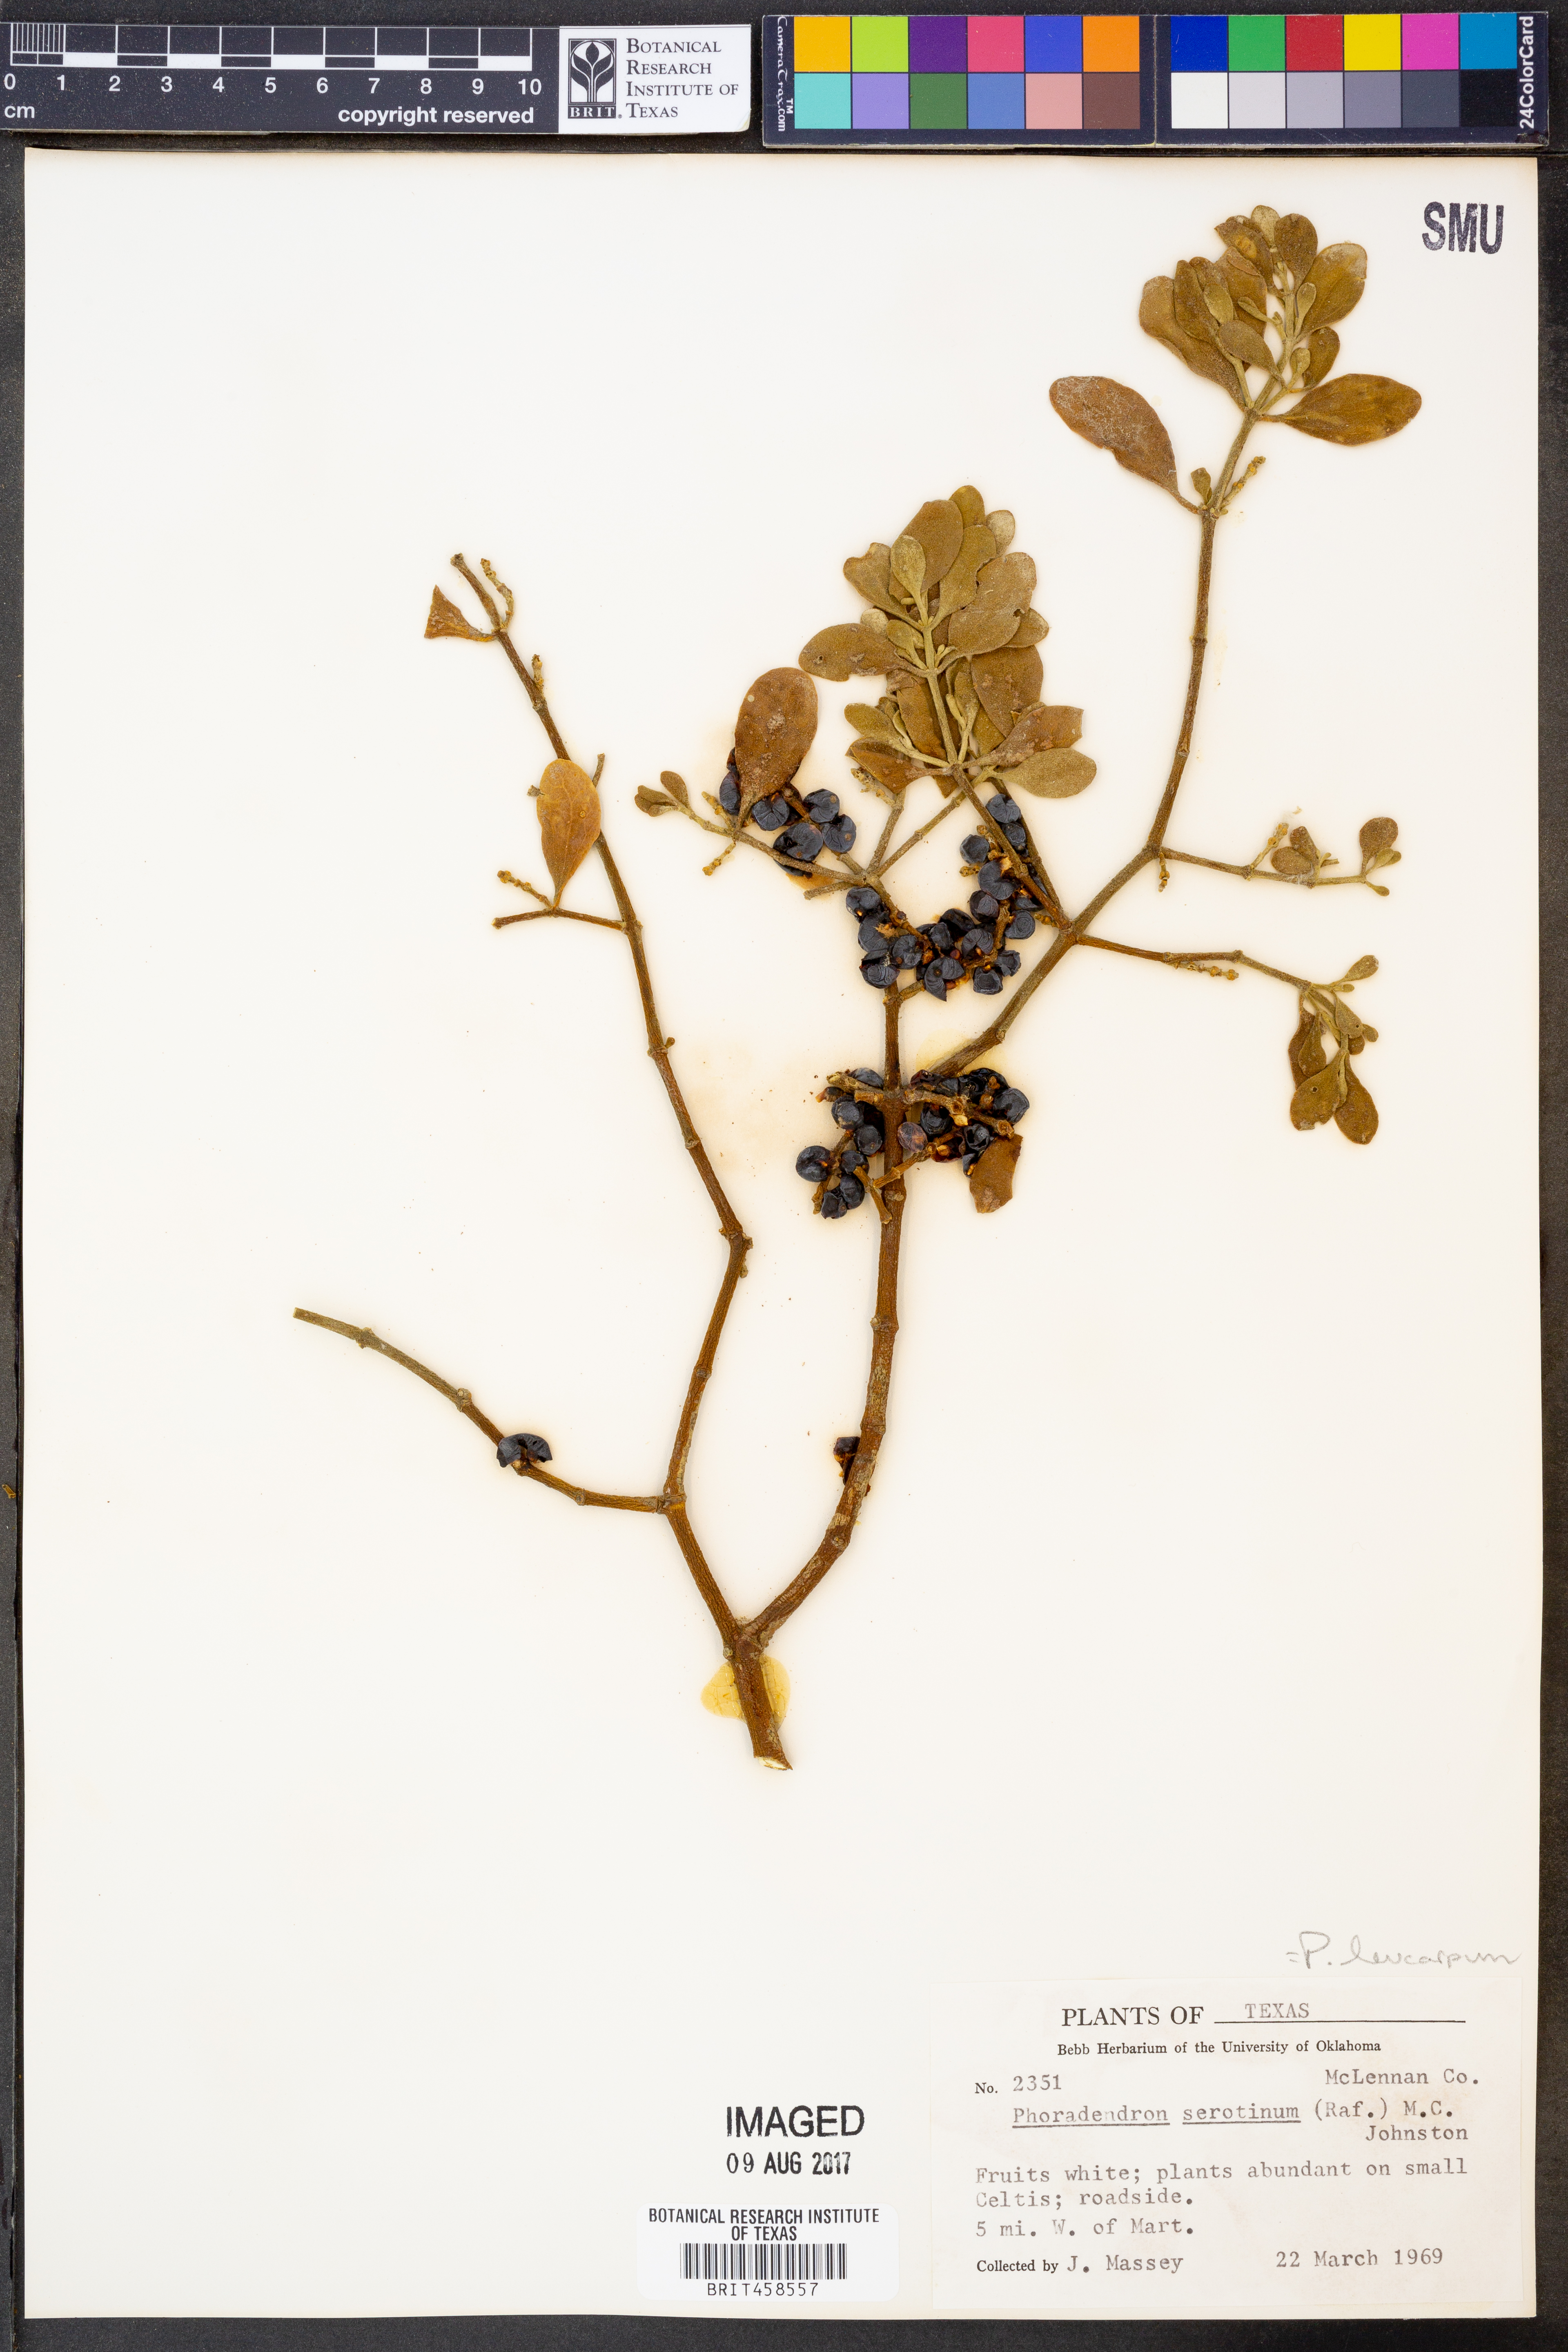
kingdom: Plantae
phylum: Tracheophyta
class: Magnoliopsida
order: Santalales
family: Viscaceae
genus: Phoradendron
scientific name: Phoradendron leucarpum
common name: Pacific mistletoe
